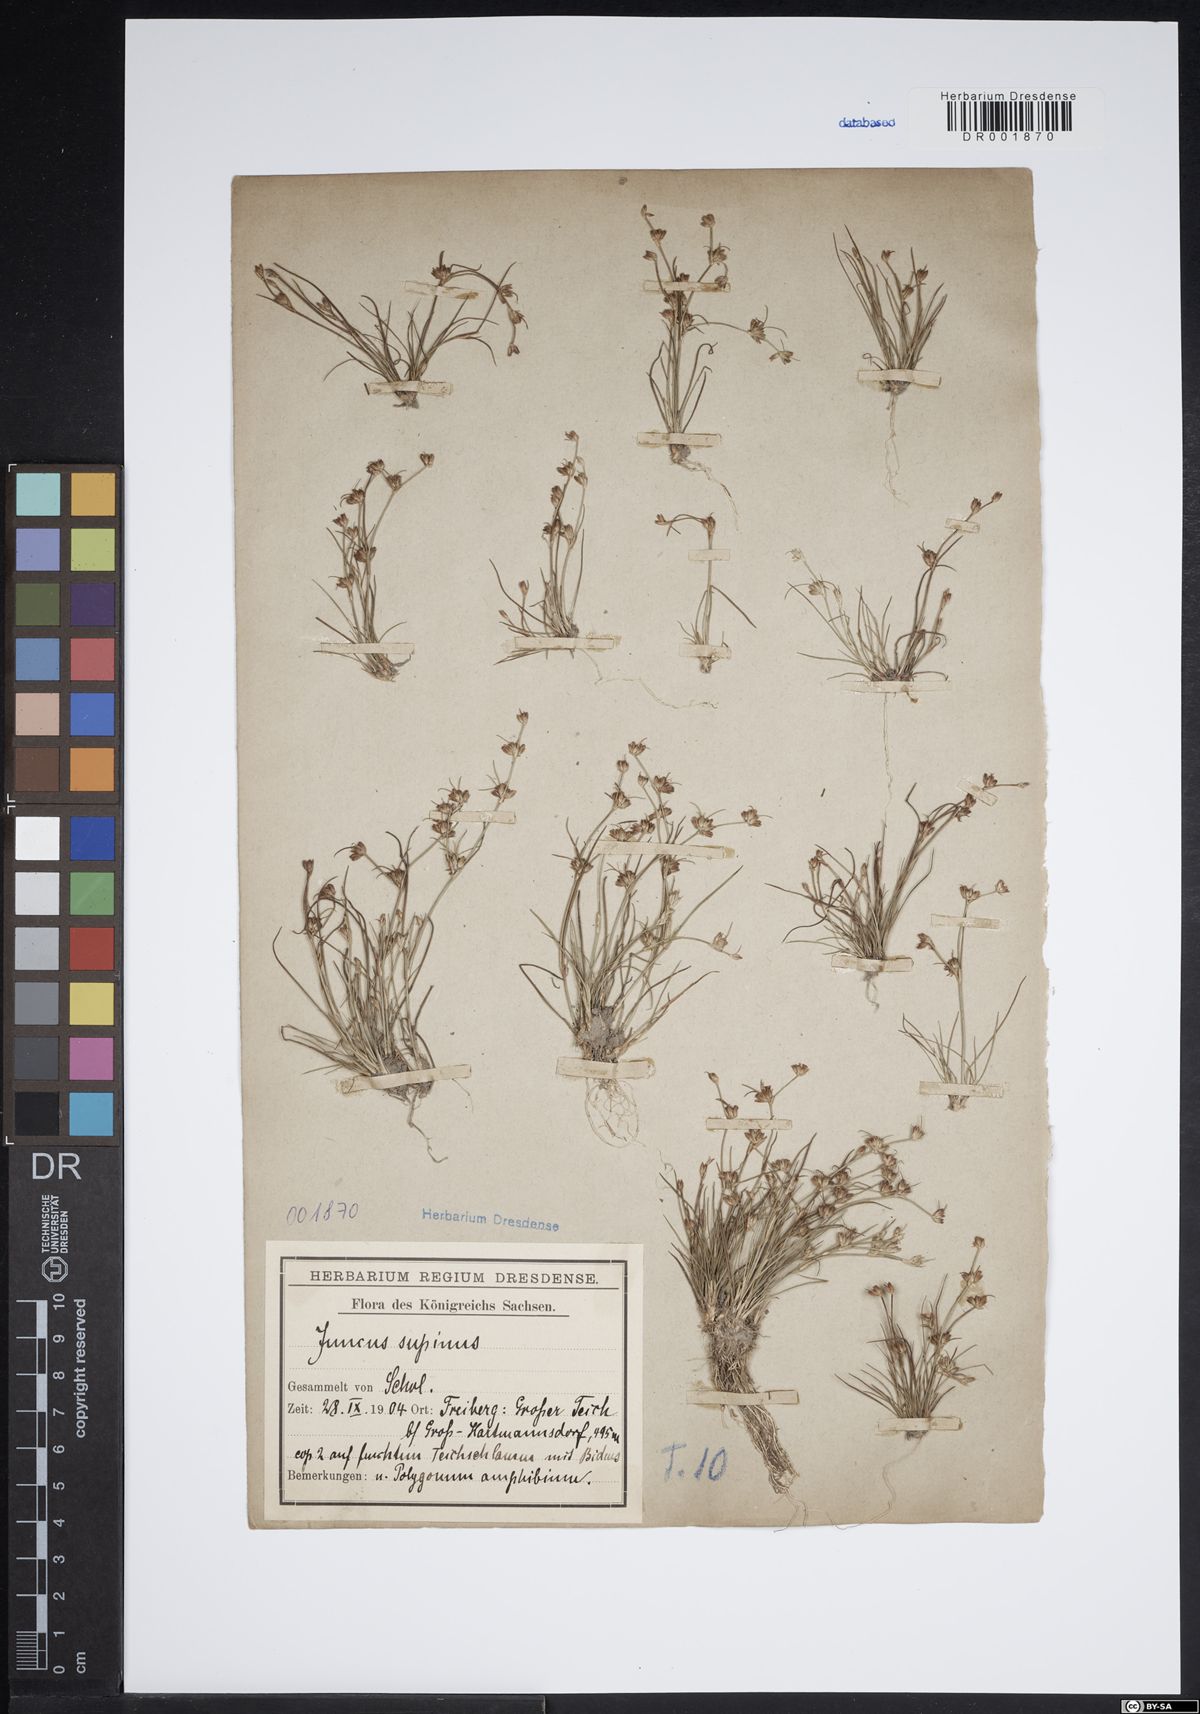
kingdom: Plantae
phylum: Tracheophyta
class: Liliopsida
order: Poales
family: Juncaceae
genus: Juncus
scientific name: Juncus bulbosus
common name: Bulbous rush
